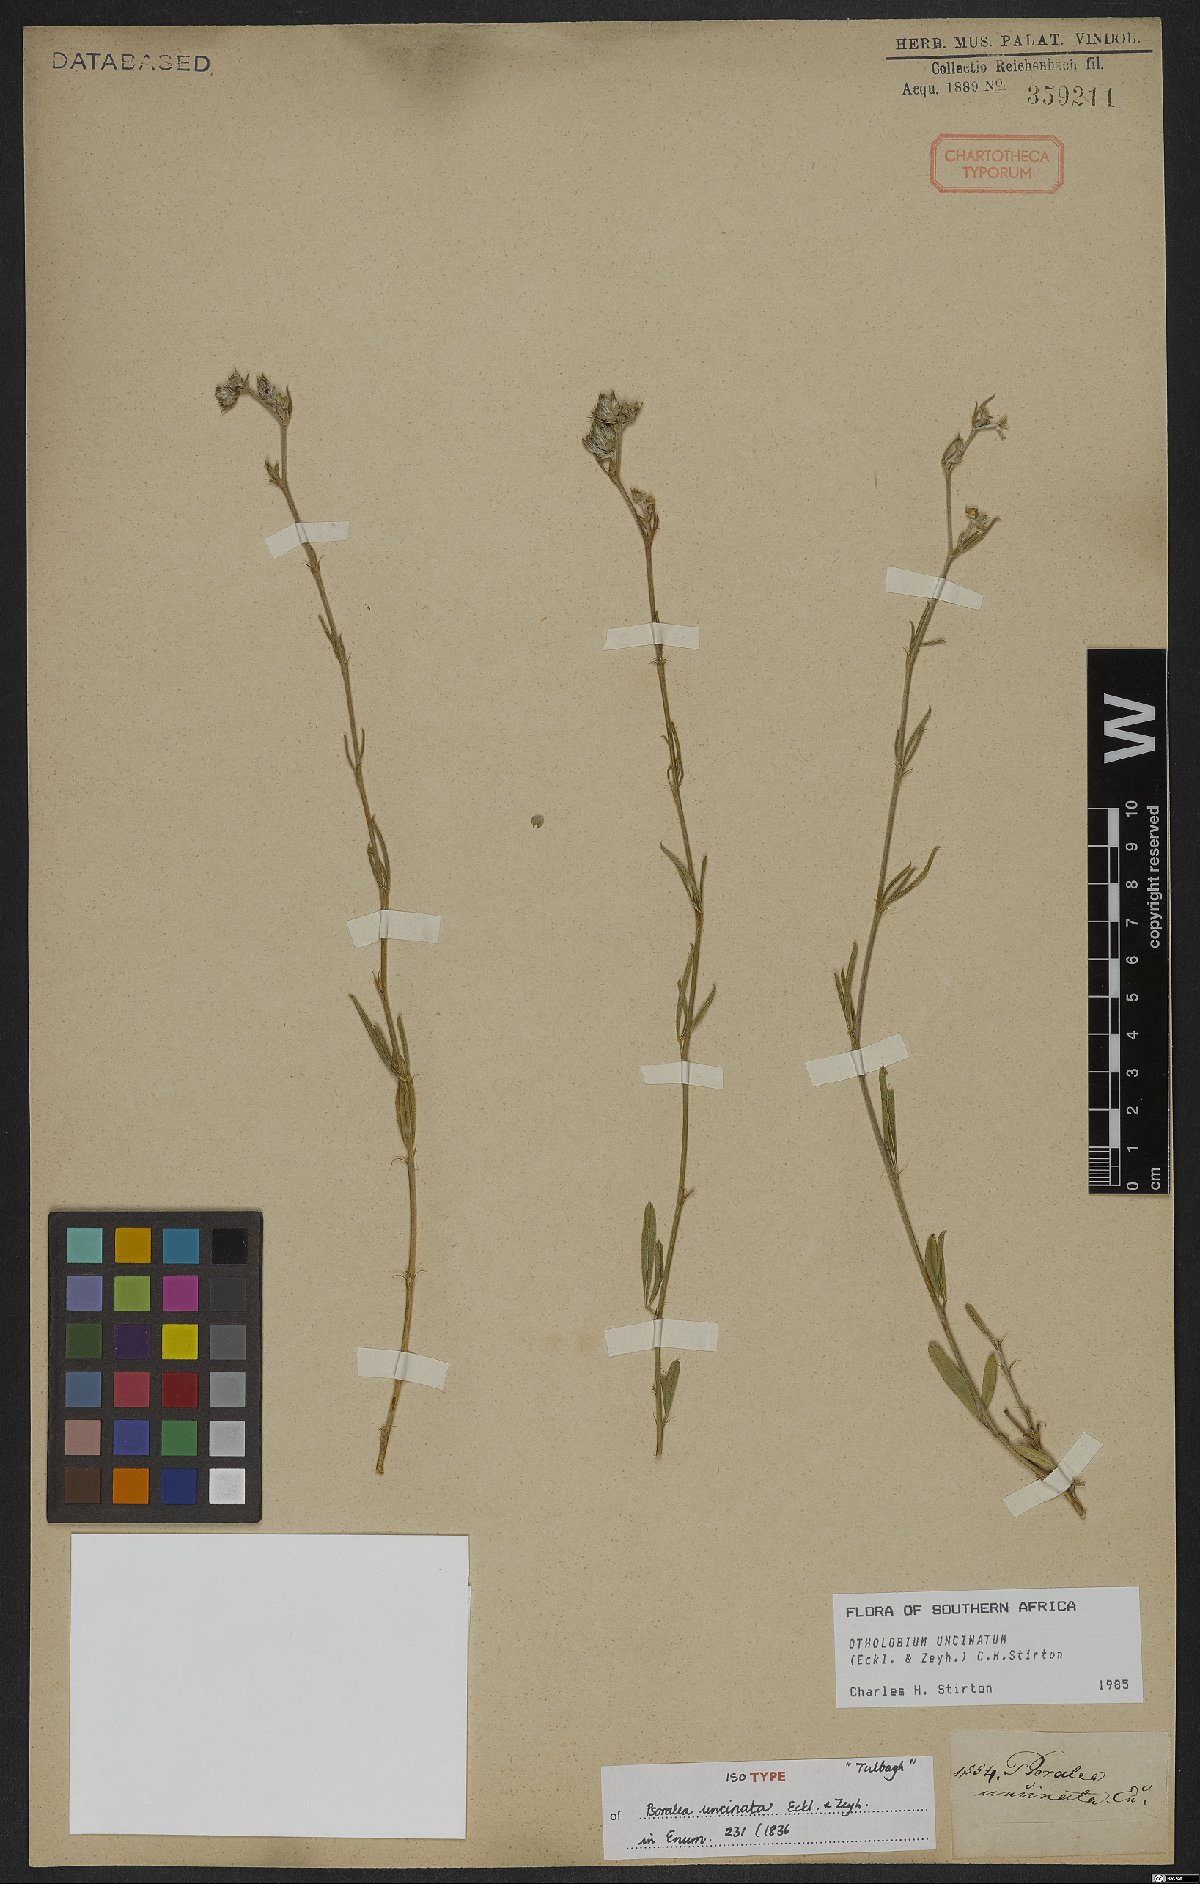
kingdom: Plantae
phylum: Tracheophyta
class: Magnoliopsida
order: Fabales
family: Fabaceae
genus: Psoralea
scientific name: Psoralea uncinata
